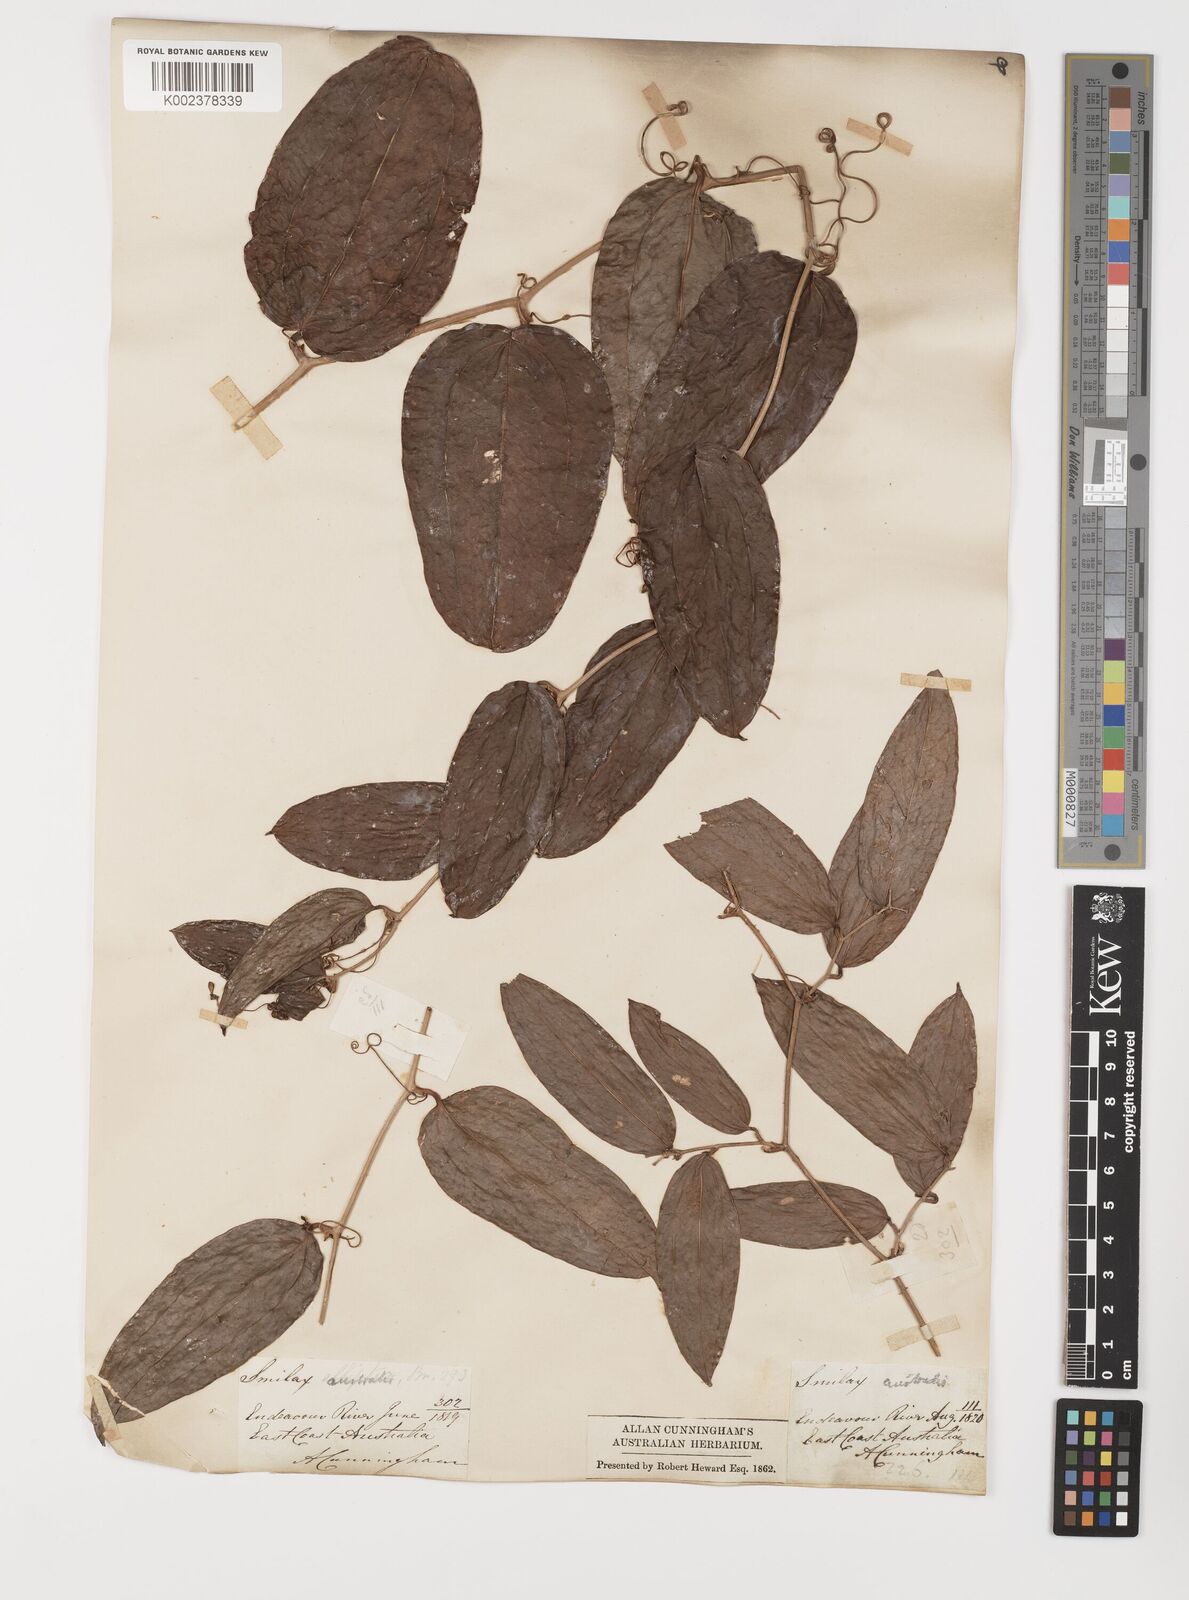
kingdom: Plantae
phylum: Tracheophyta
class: Liliopsida
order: Liliales
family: Smilacaceae
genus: Smilax
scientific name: Smilax australis
